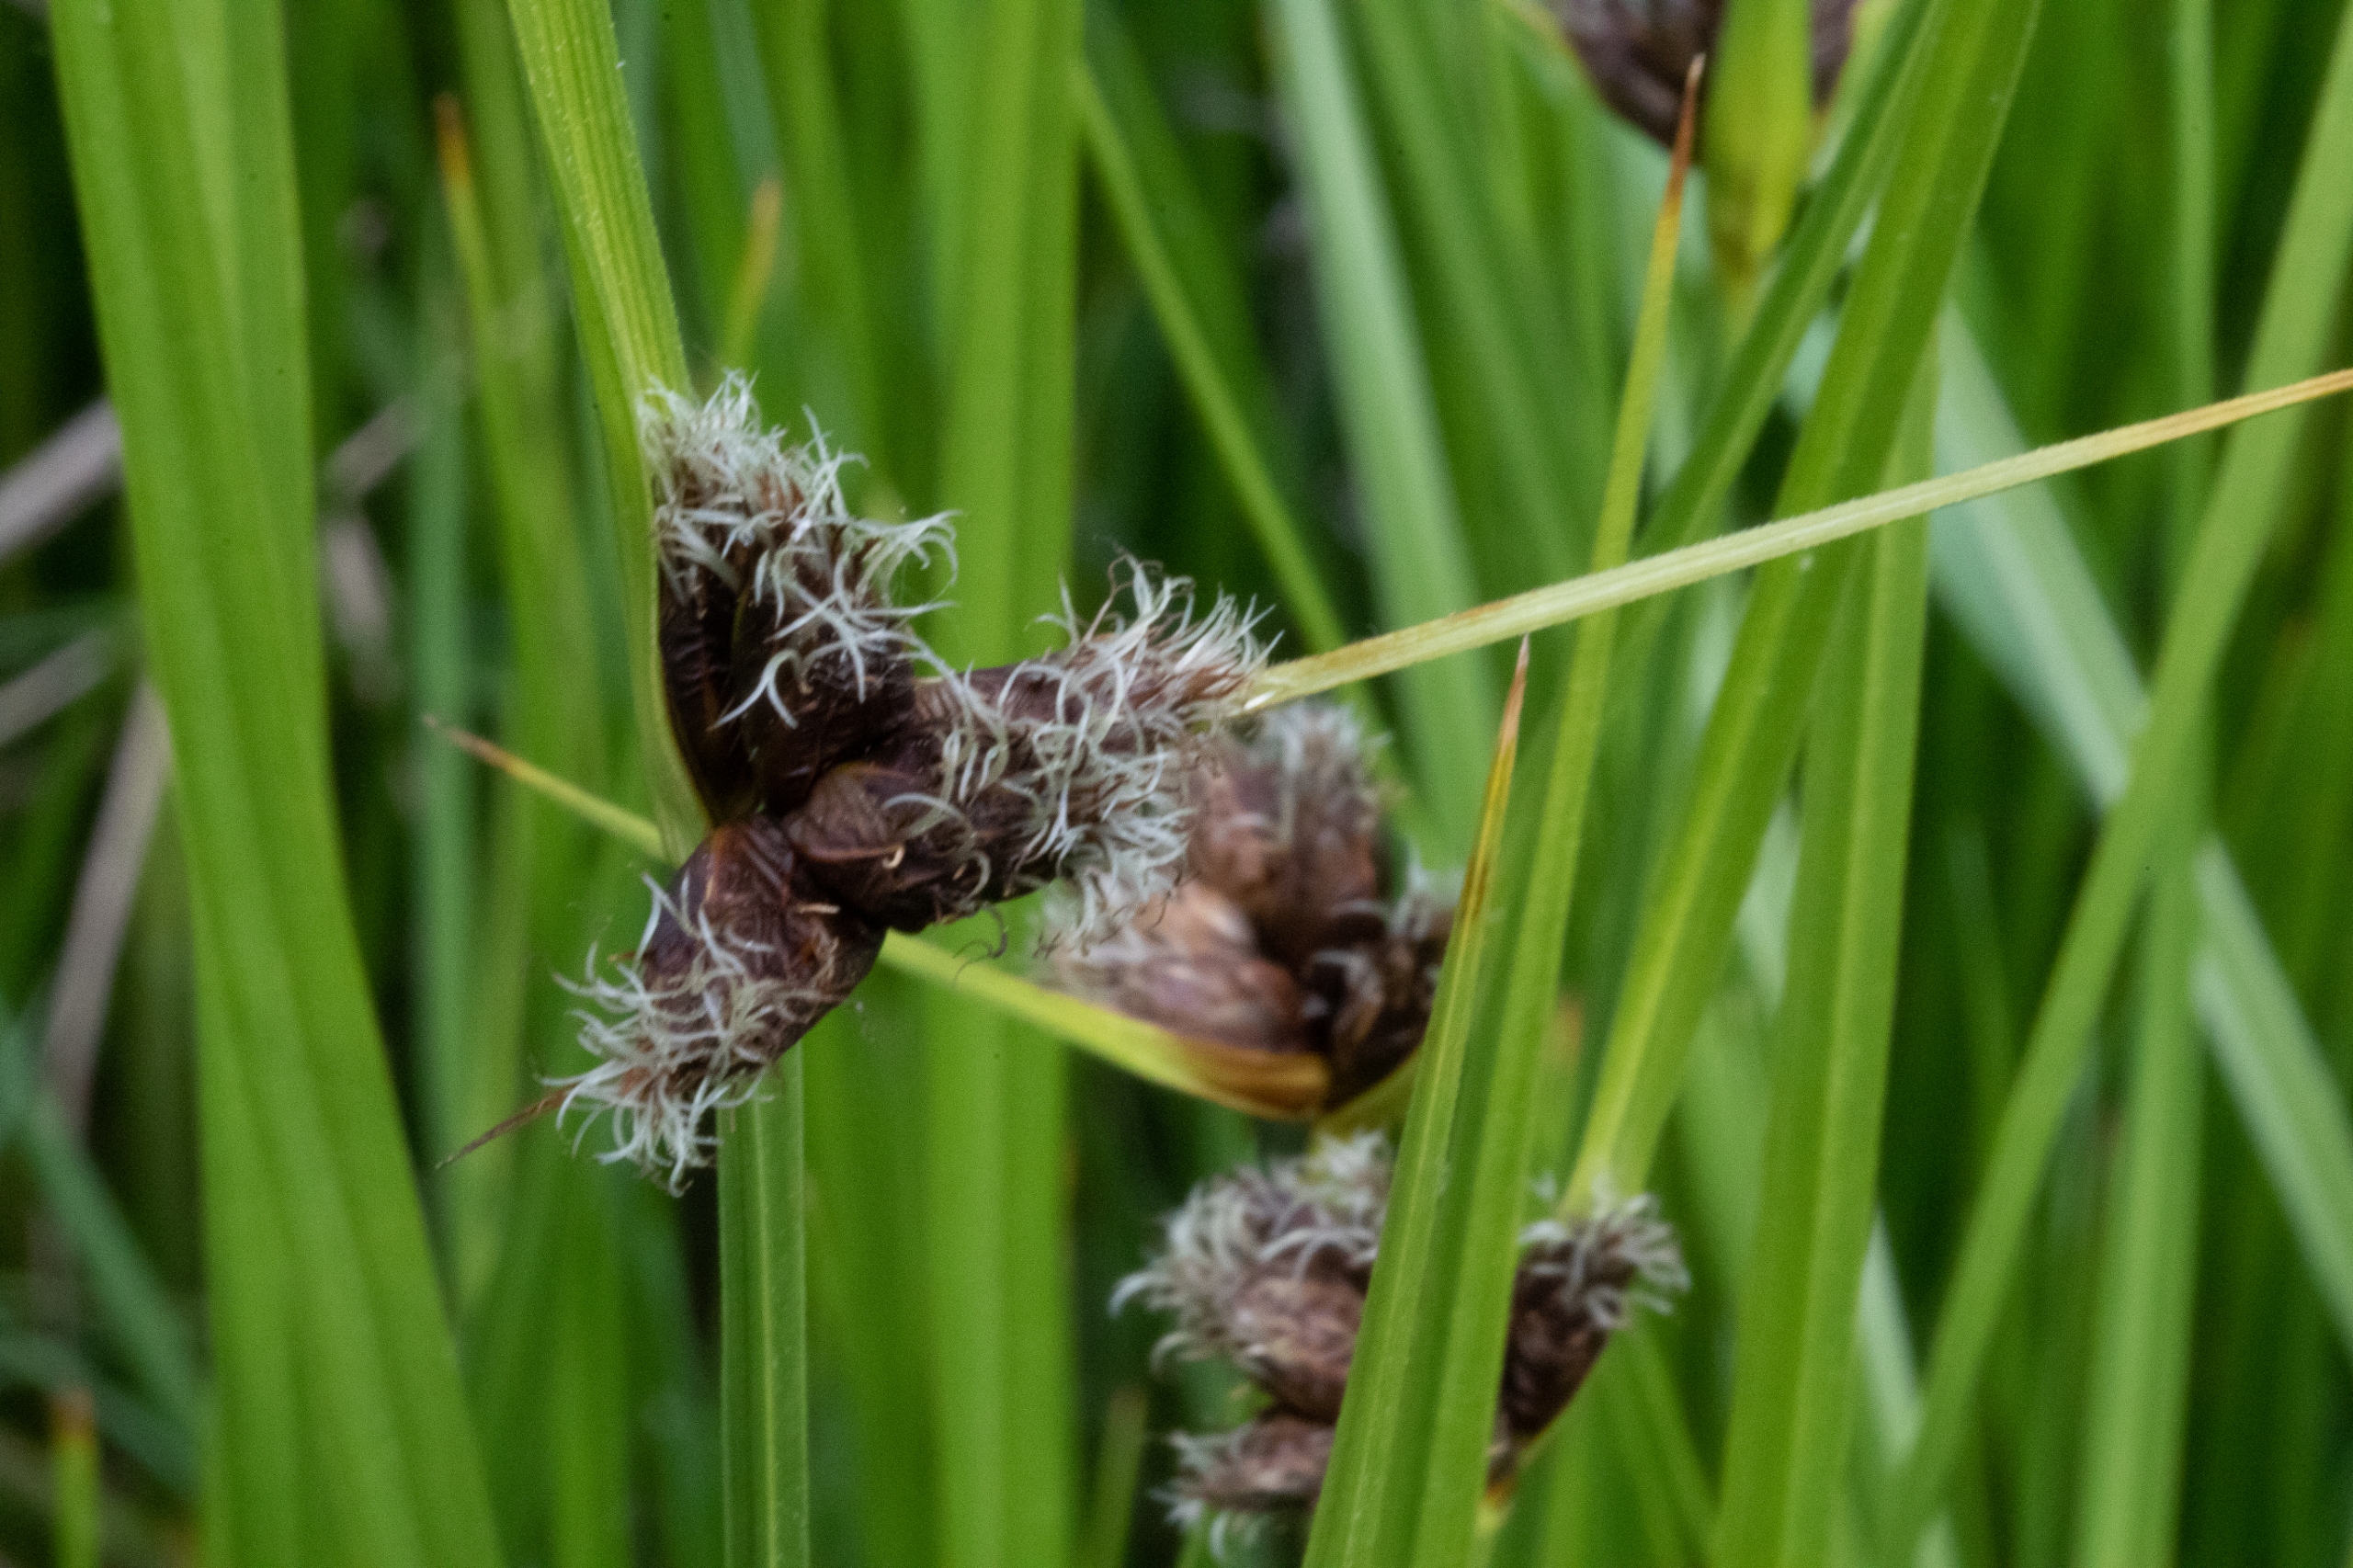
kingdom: Plantae
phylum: Tracheophyta
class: Liliopsida
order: Poales
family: Cyperaceae
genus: Bolboschoenus
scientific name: Bolboschoenus maritimus
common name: Strand-kogleaks
